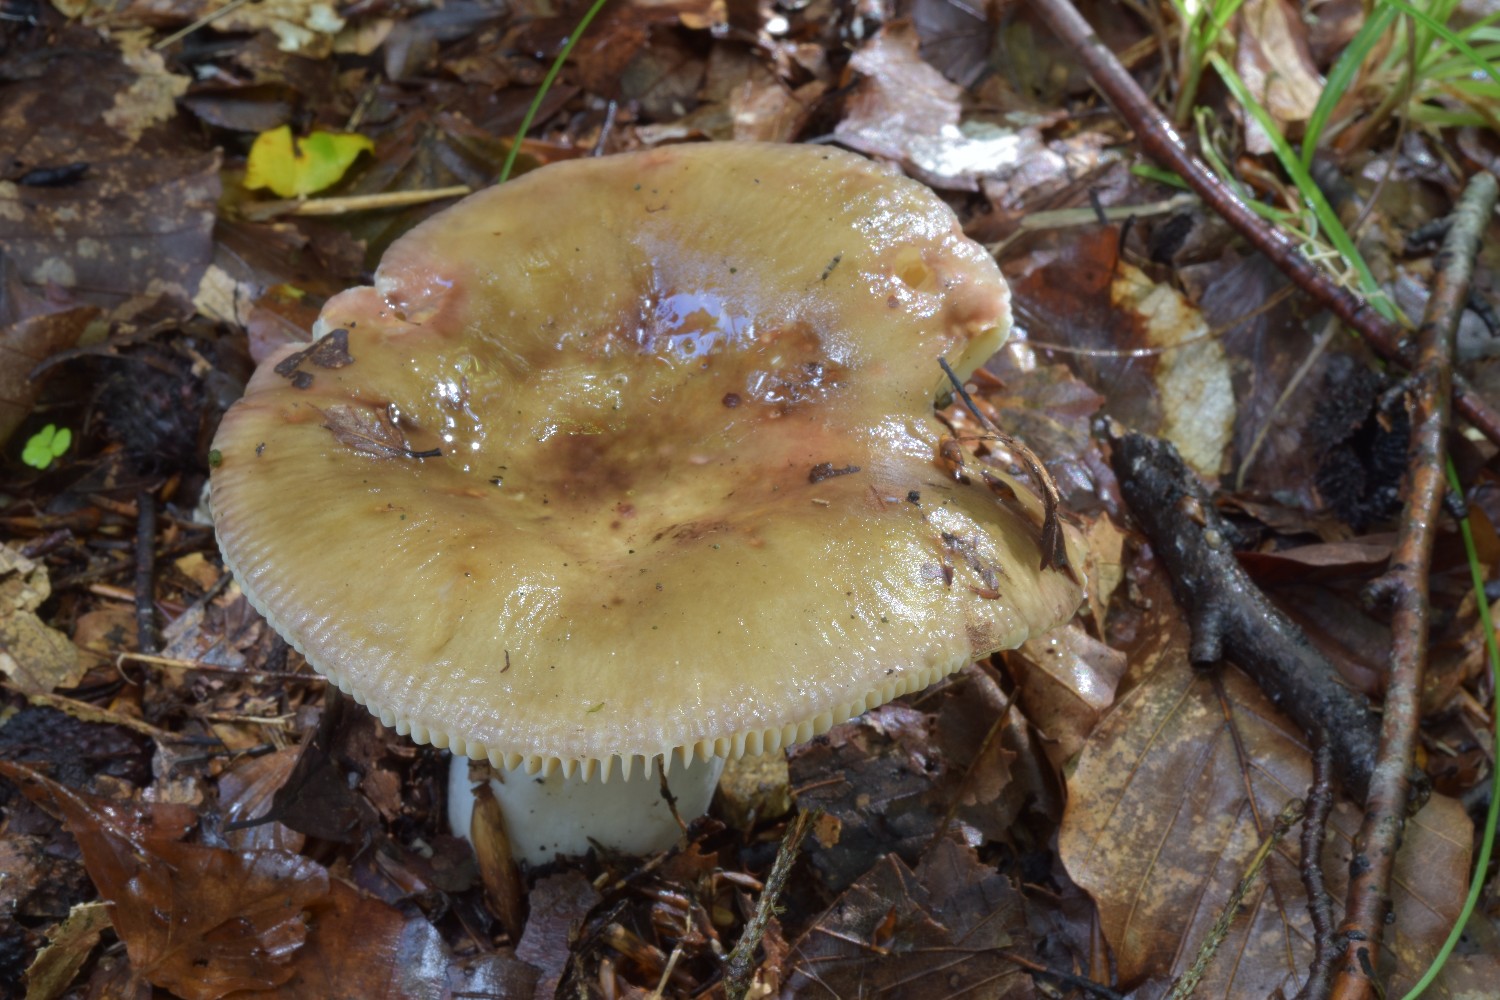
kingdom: Fungi
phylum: Basidiomycota
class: Agaricomycetes
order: Russulales
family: Russulaceae
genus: Russula
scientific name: Russula romellii
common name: romells skørhat
